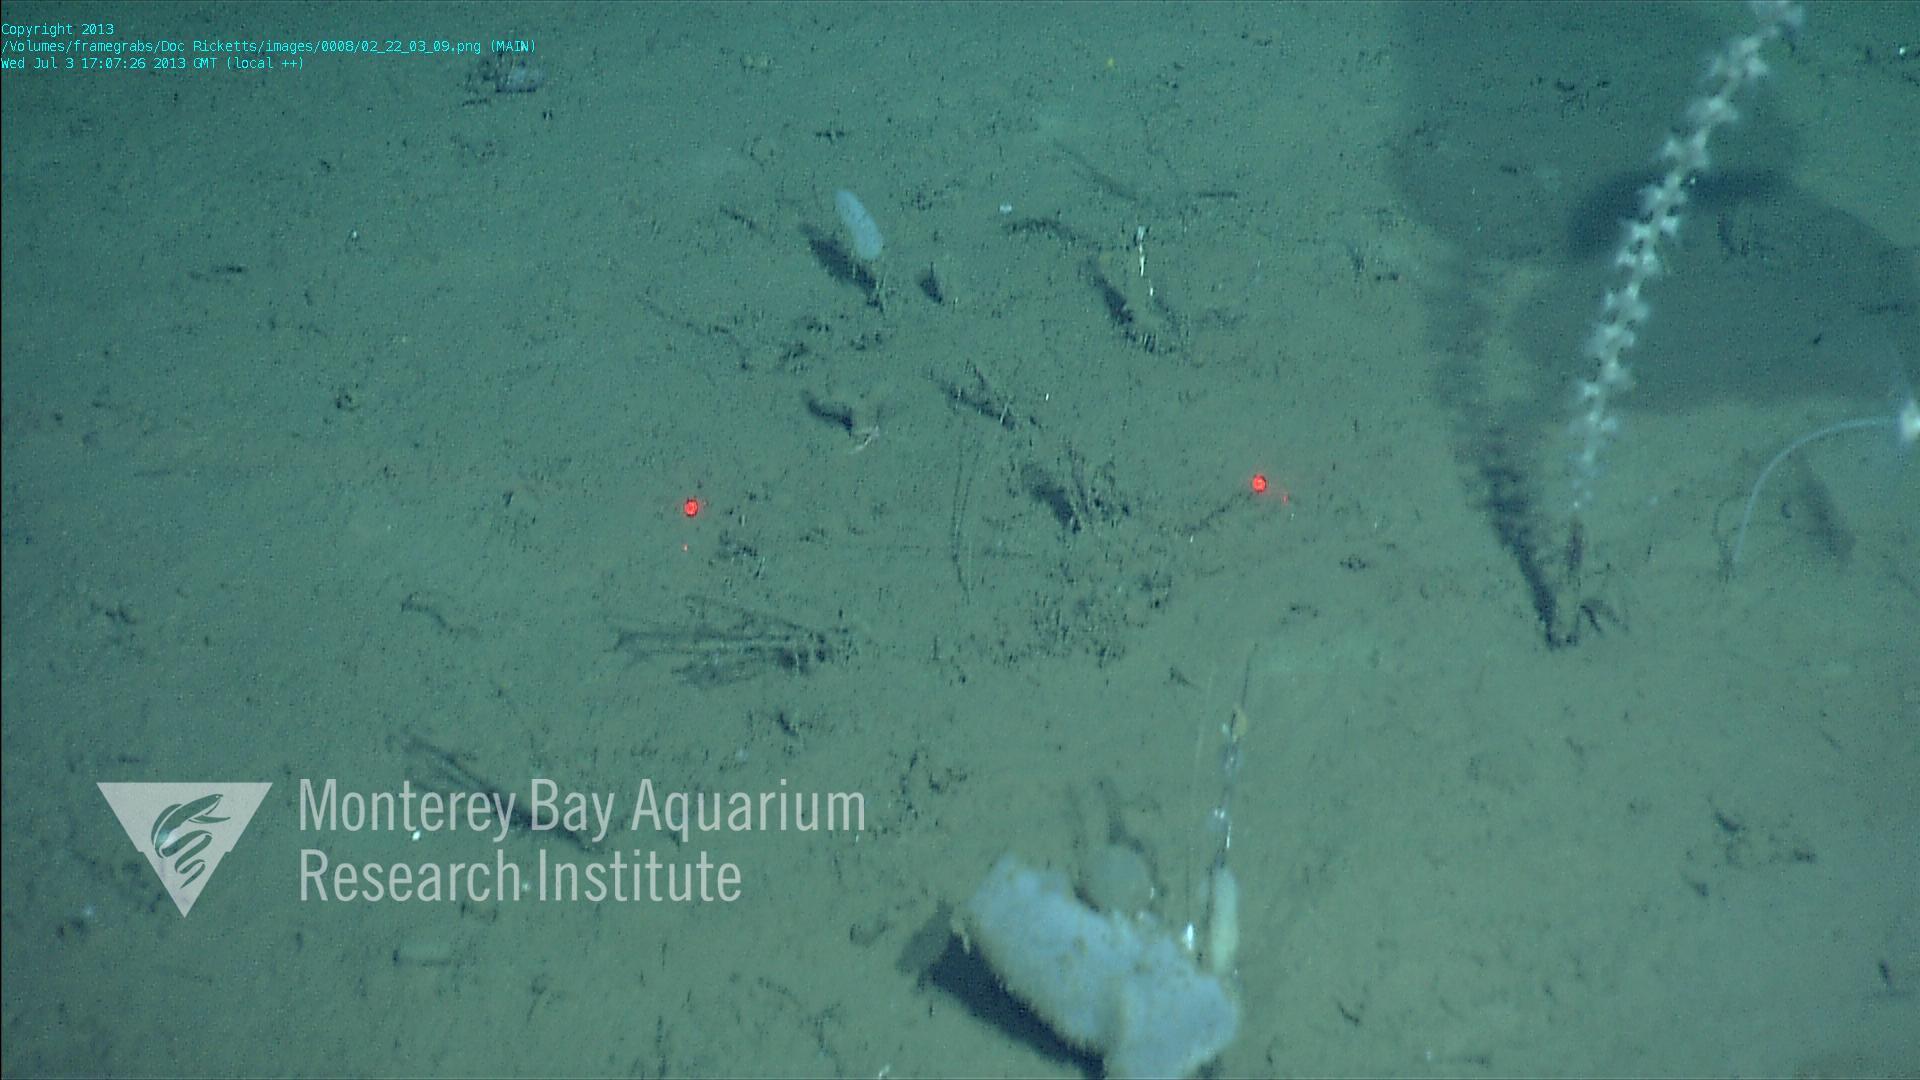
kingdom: Animalia
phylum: Porifera
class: Hexactinellida
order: Amphidiscosida
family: Hyalonematidae
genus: Hyalonema
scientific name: Hyalonema
